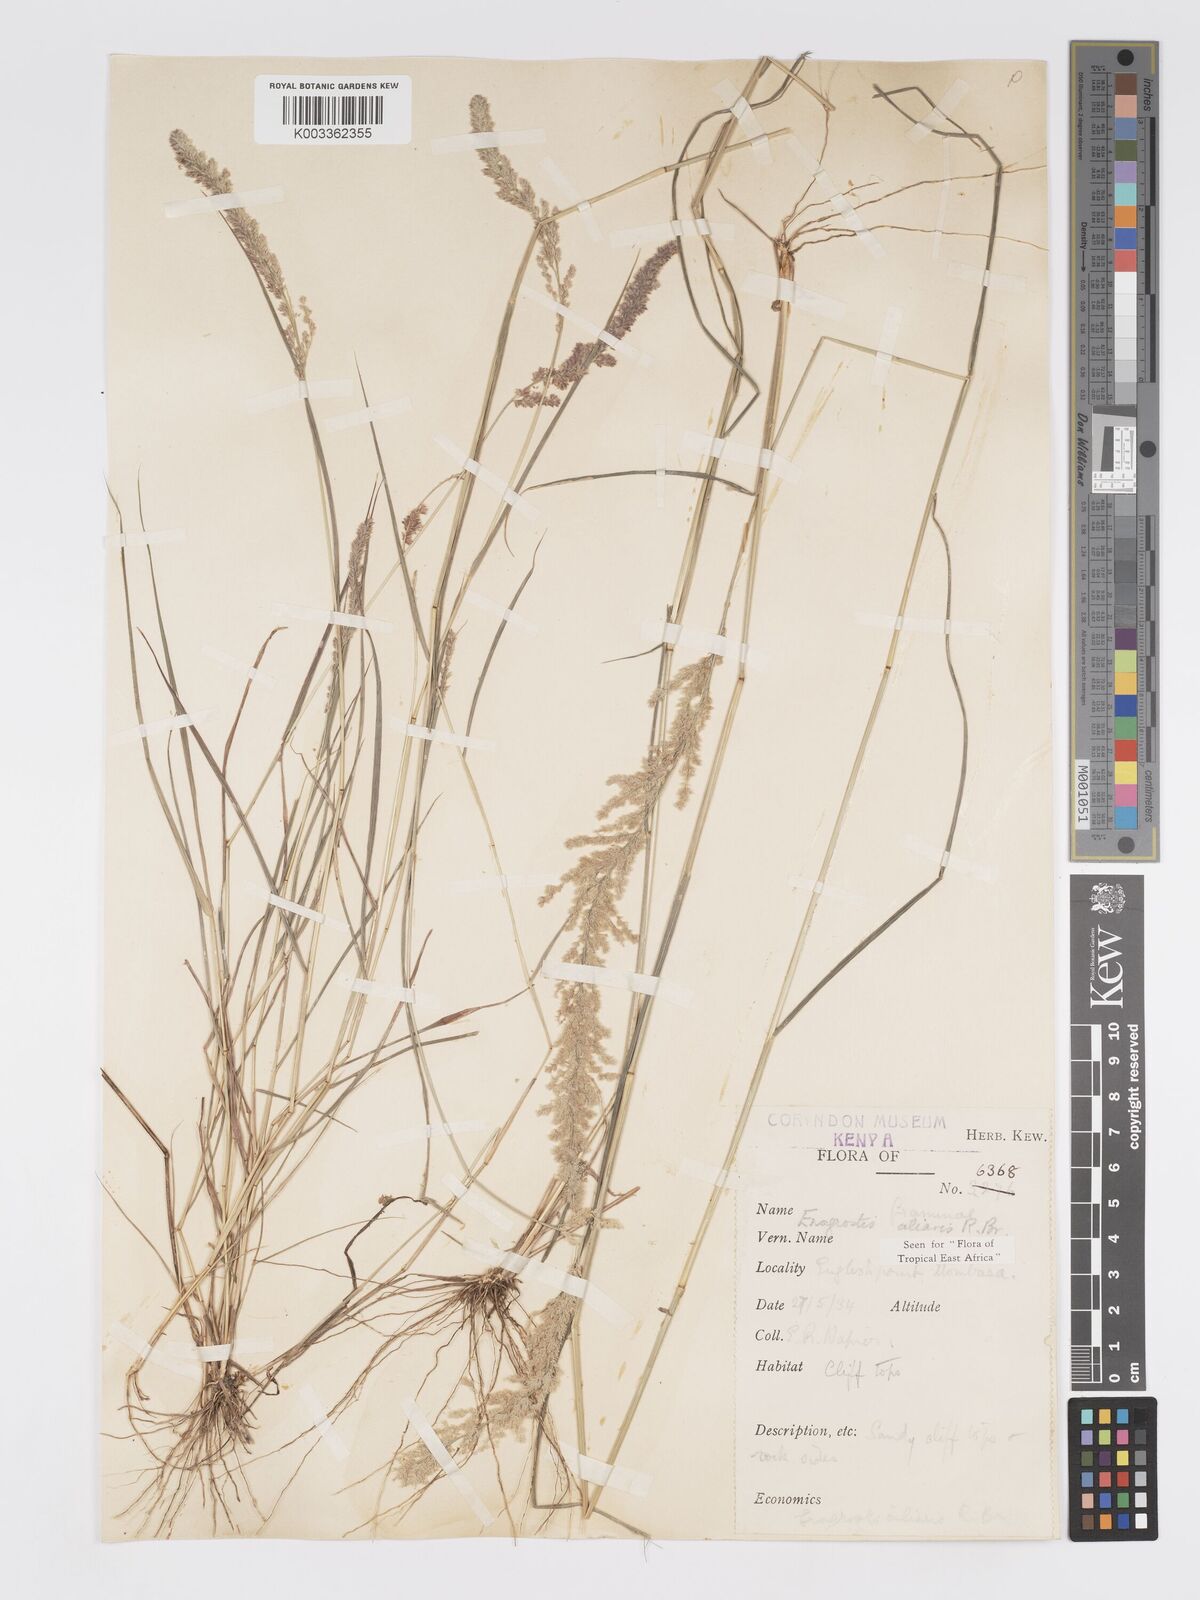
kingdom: Plantae
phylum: Tracheophyta
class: Liliopsida
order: Poales
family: Poaceae
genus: Eragrostis
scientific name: Eragrostis ciliaris
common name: Gophertail lovegrass
